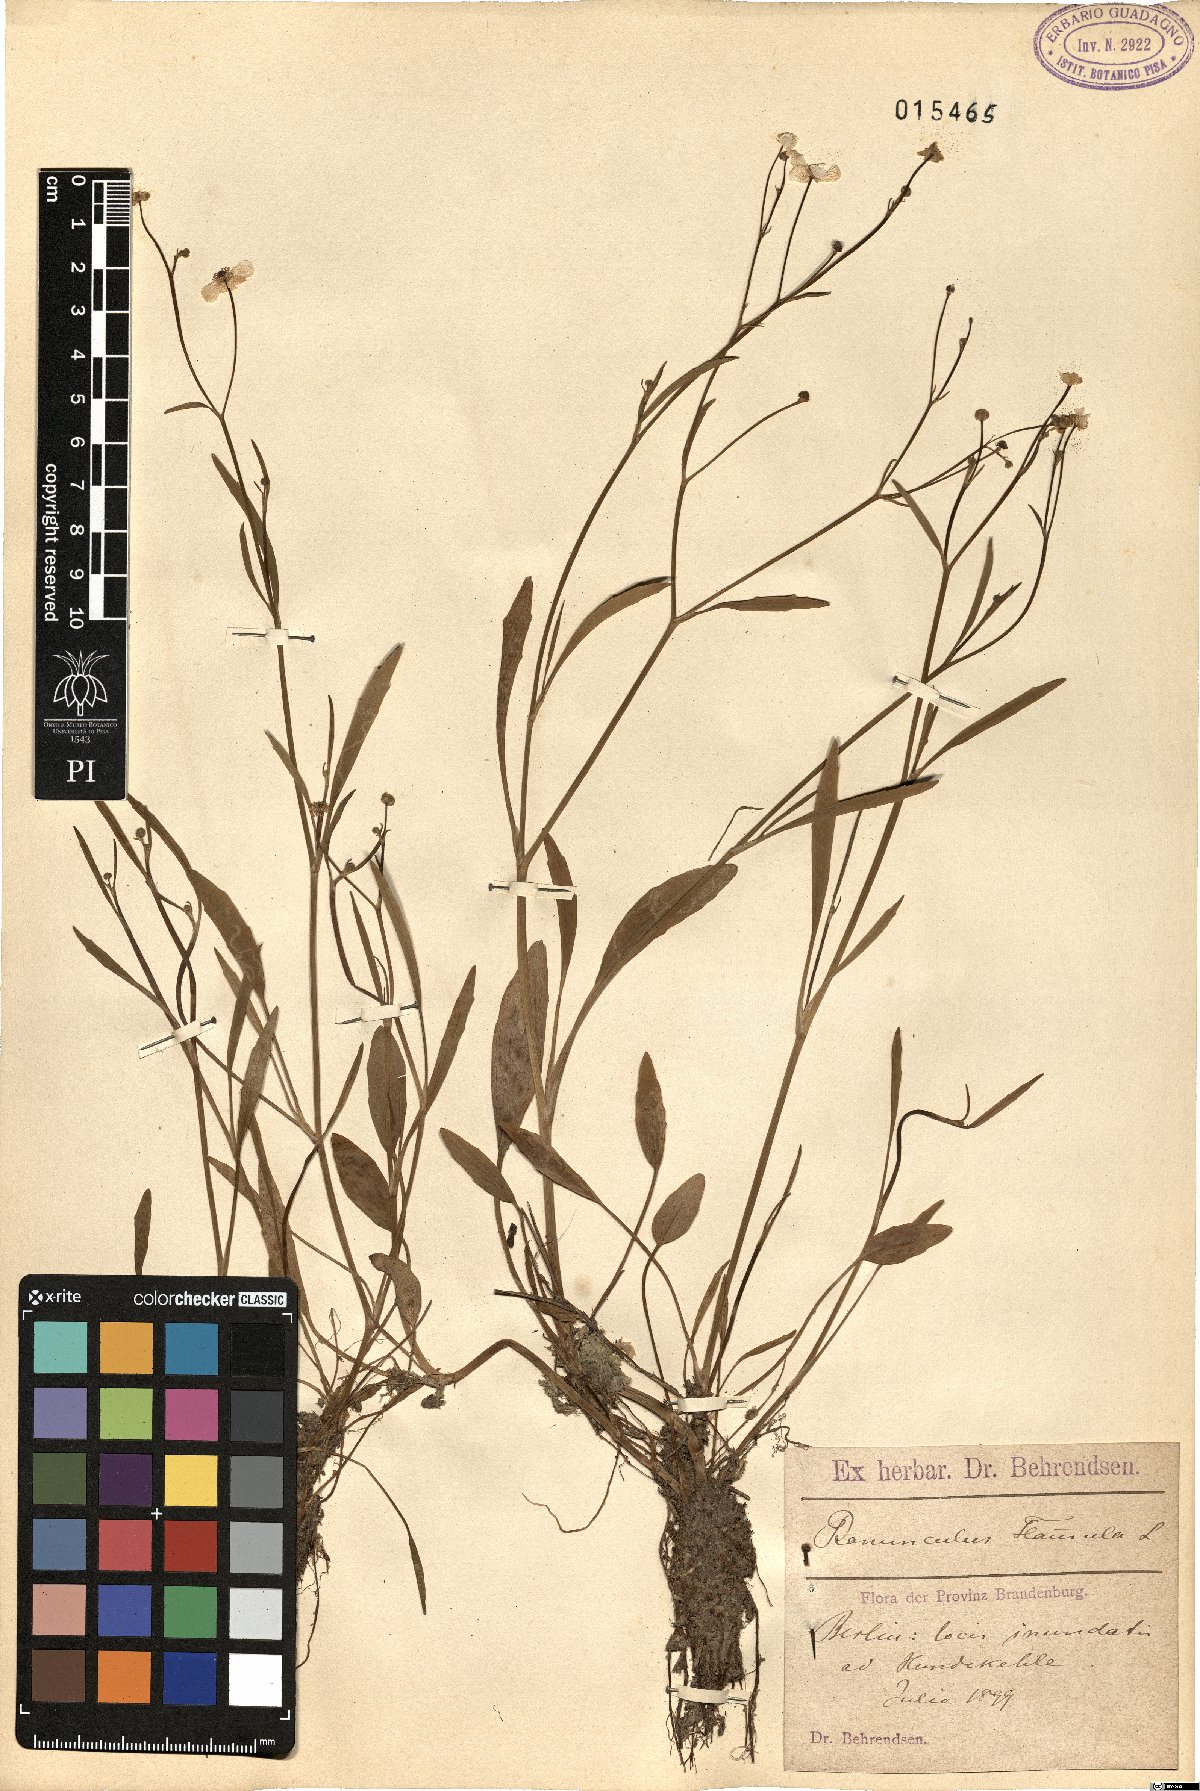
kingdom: Plantae
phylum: Tracheophyta
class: Magnoliopsida
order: Ranunculales
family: Ranunculaceae
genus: Ranunculus
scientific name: Ranunculus flammula
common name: Lesser spearwort
